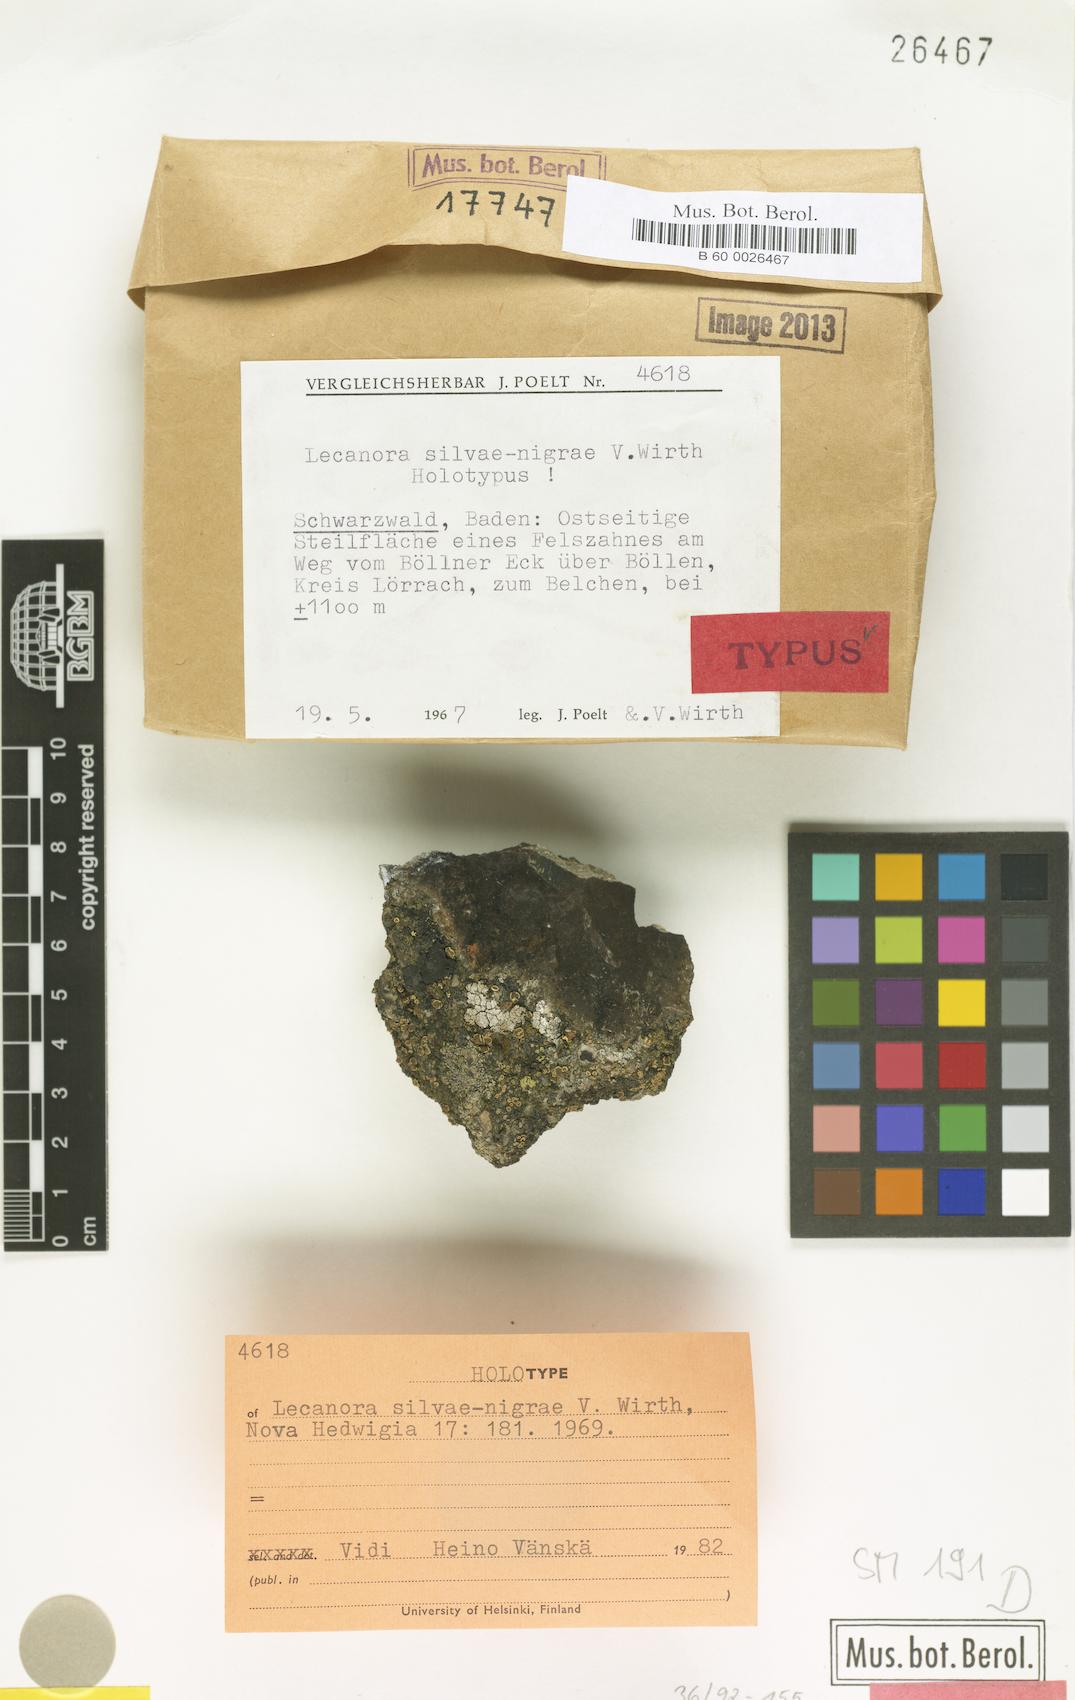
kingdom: Fungi
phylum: Ascomycota
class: Lecanoromycetes
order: Lecanorales
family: Lecanoraceae
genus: Lecanora
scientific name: Lecanora silvae-nigrae
